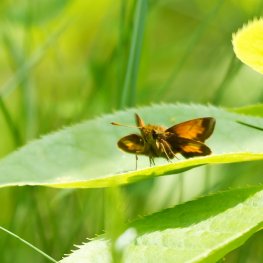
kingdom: Animalia
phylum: Arthropoda
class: Insecta
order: Lepidoptera
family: Hesperiidae
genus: Lon
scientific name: Lon hobomok
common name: Hobomok Skipper
